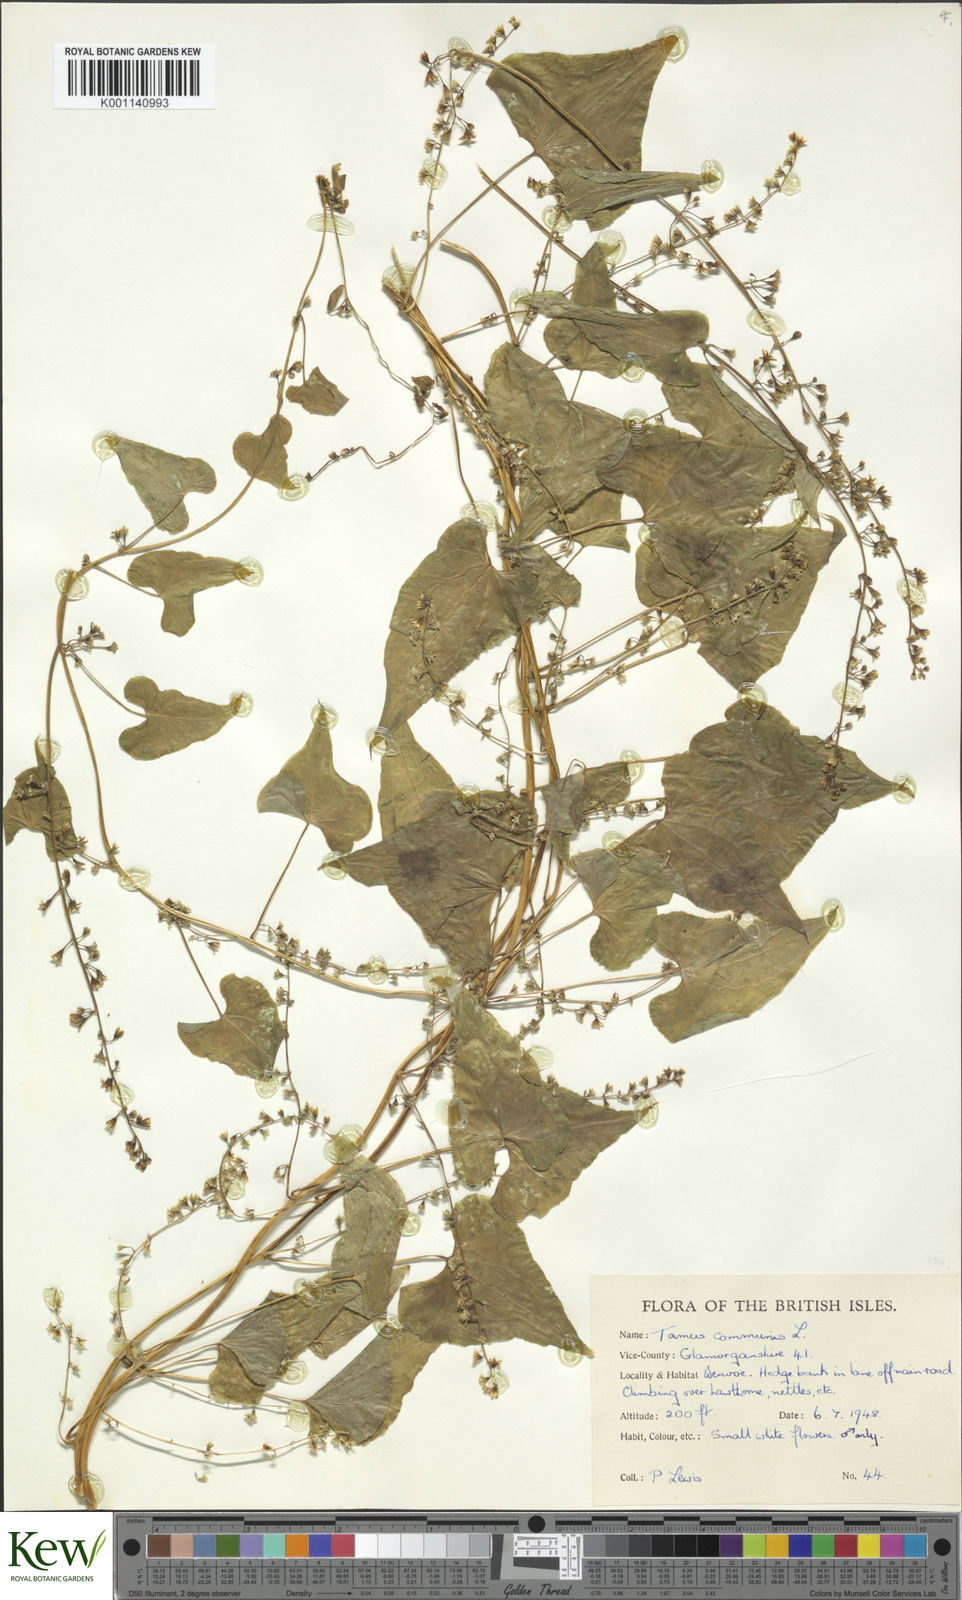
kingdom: Plantae
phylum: Tracheophyta
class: Liliopsida
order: Dioscoreales
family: Dioscoreaceae
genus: Dioscorea
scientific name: Dioscorea communis
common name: Black-bindweed
